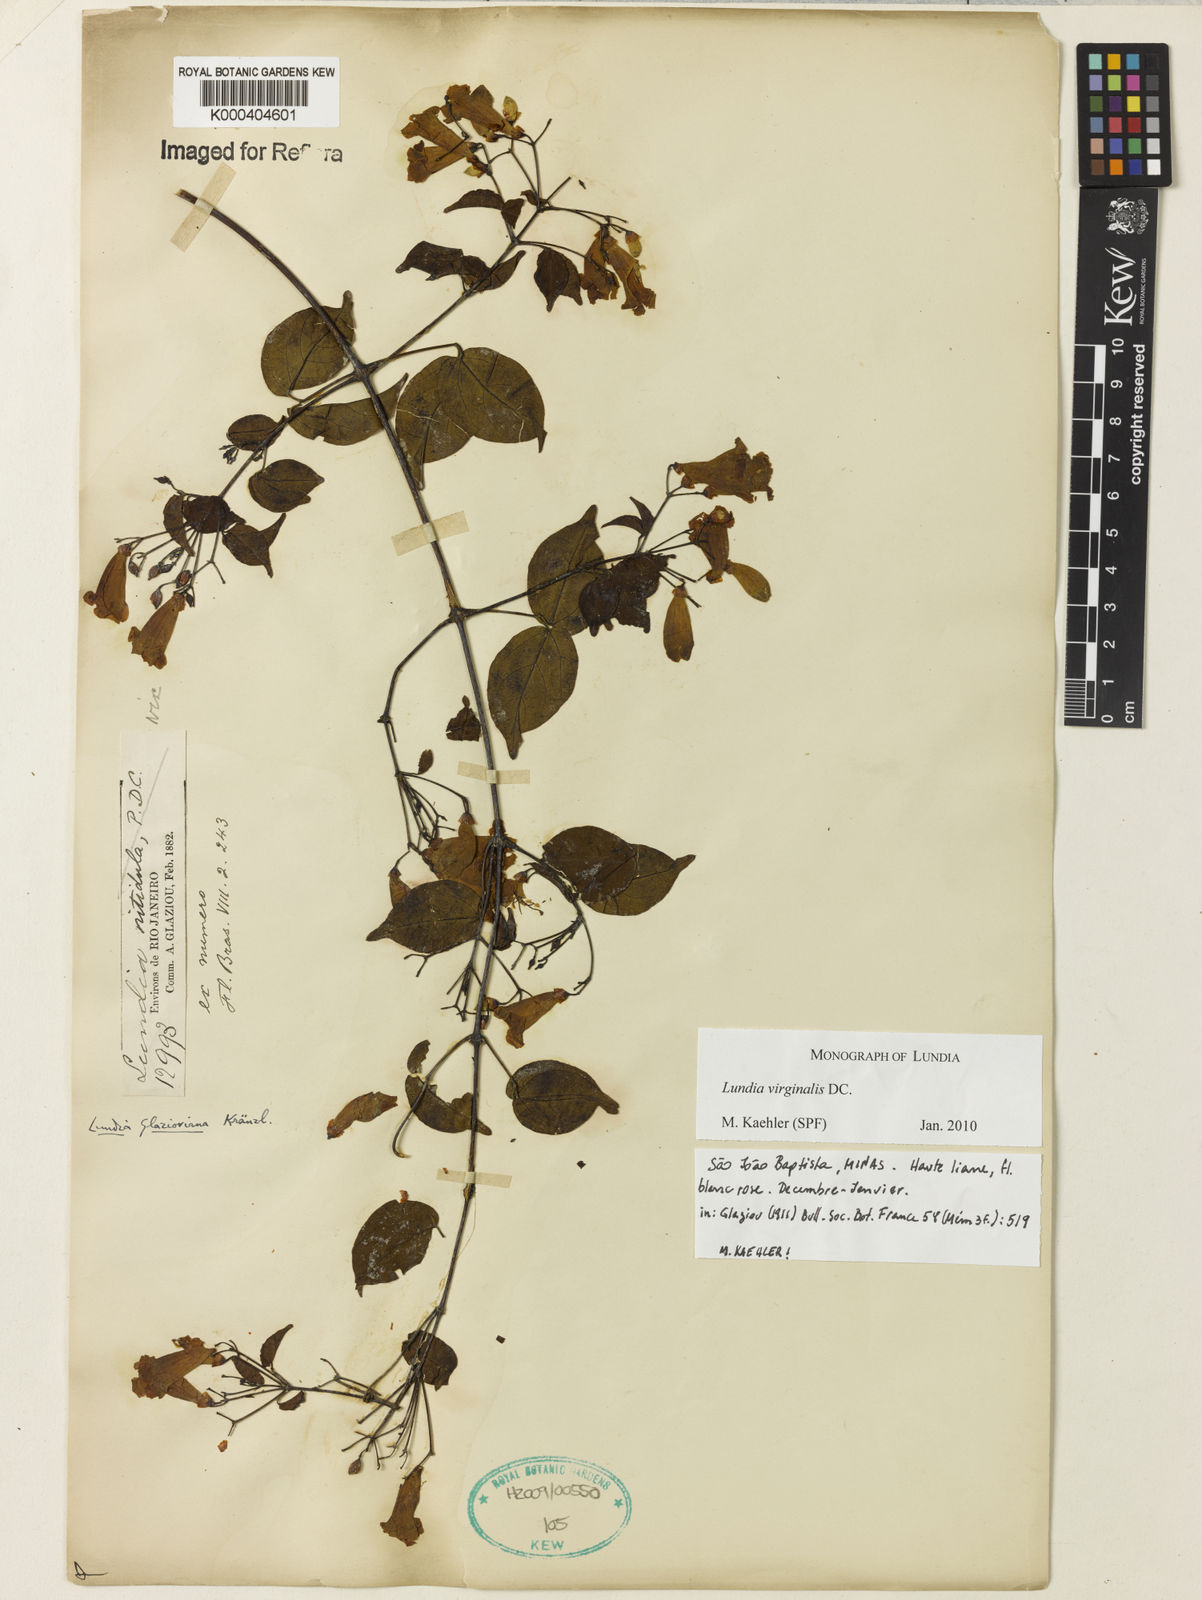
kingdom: Plantae
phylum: Tracheophyta
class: Magnoliopsida
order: Lamiales
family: Bignoniaceae
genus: Lundia
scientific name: Lundia virginalis
